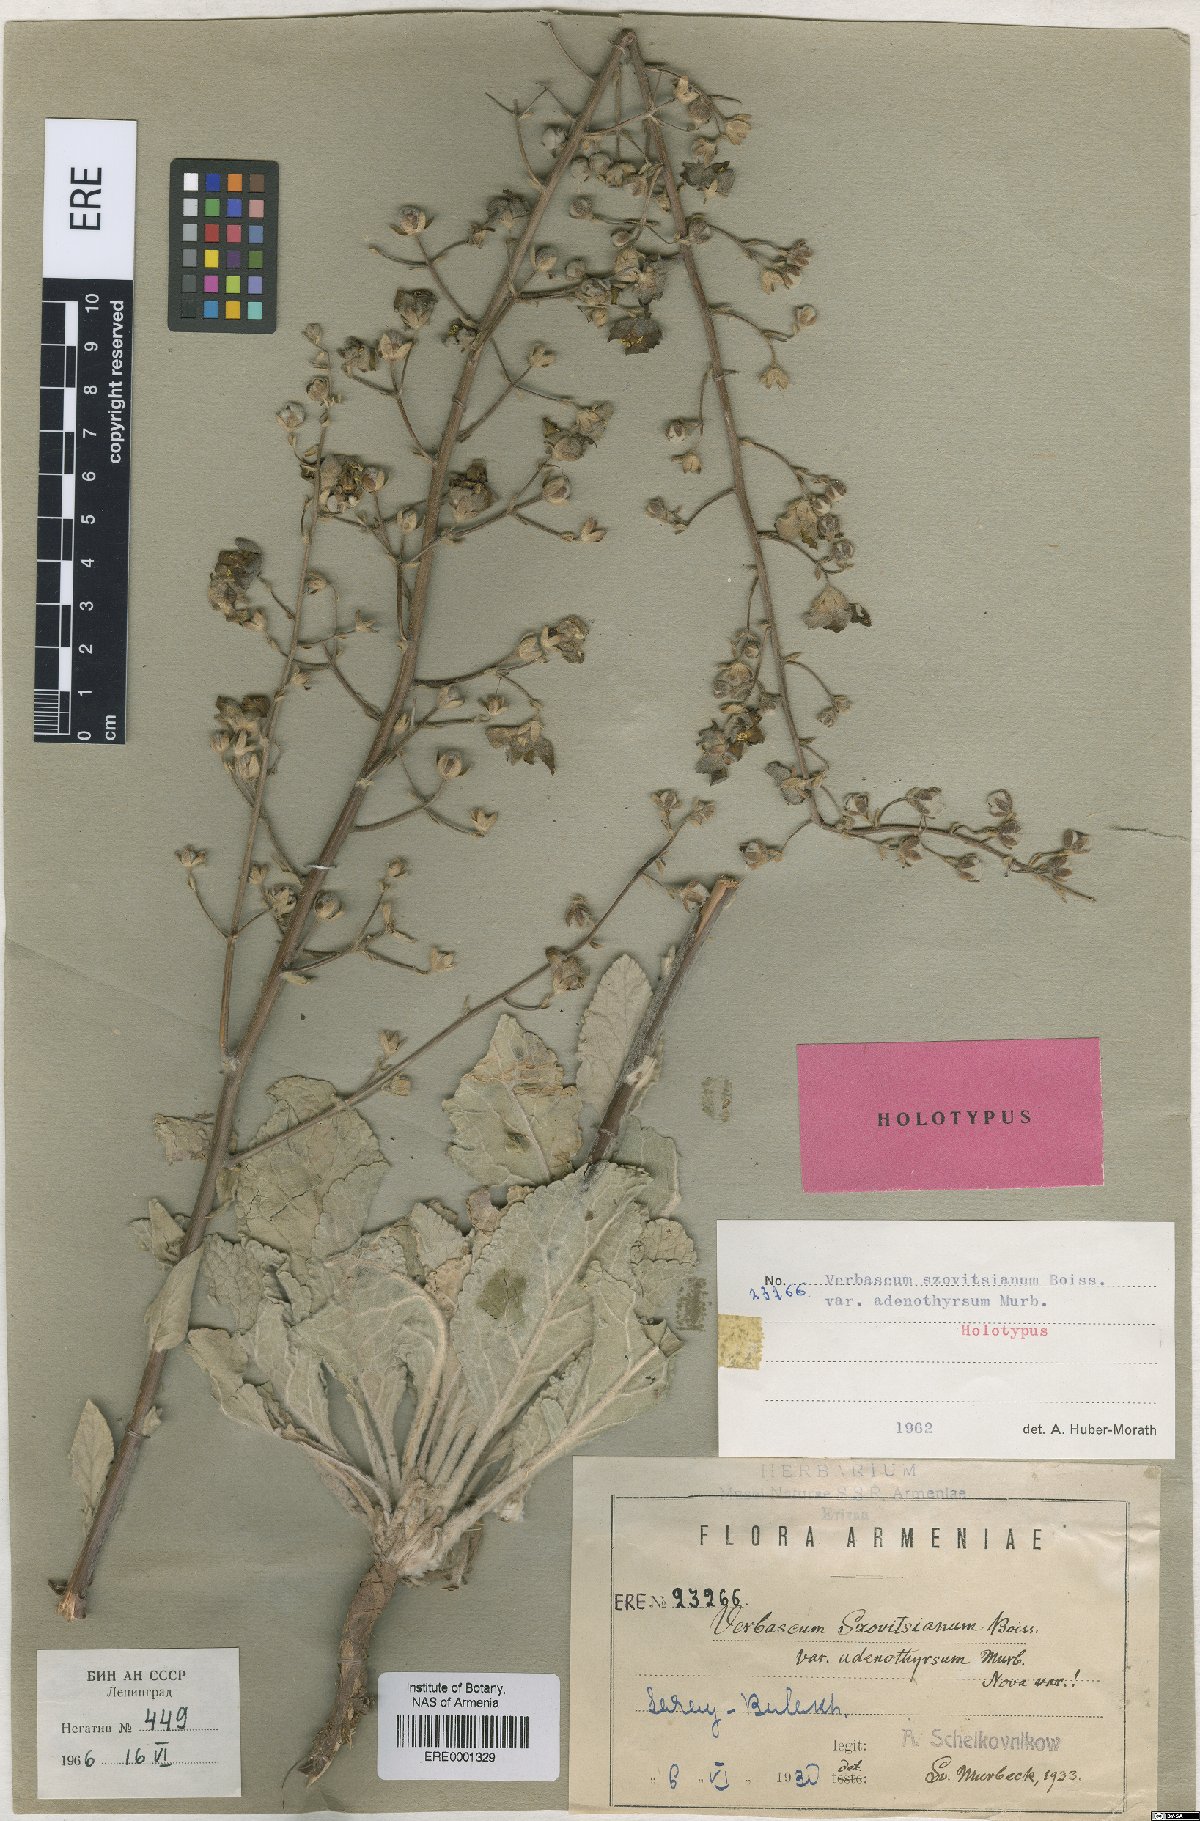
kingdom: Plantae
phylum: Tracheophyta
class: Magnoliopsida
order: Lamiales
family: Scrophulariaceae
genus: Verbascum
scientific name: Verbascum szovitsianum
